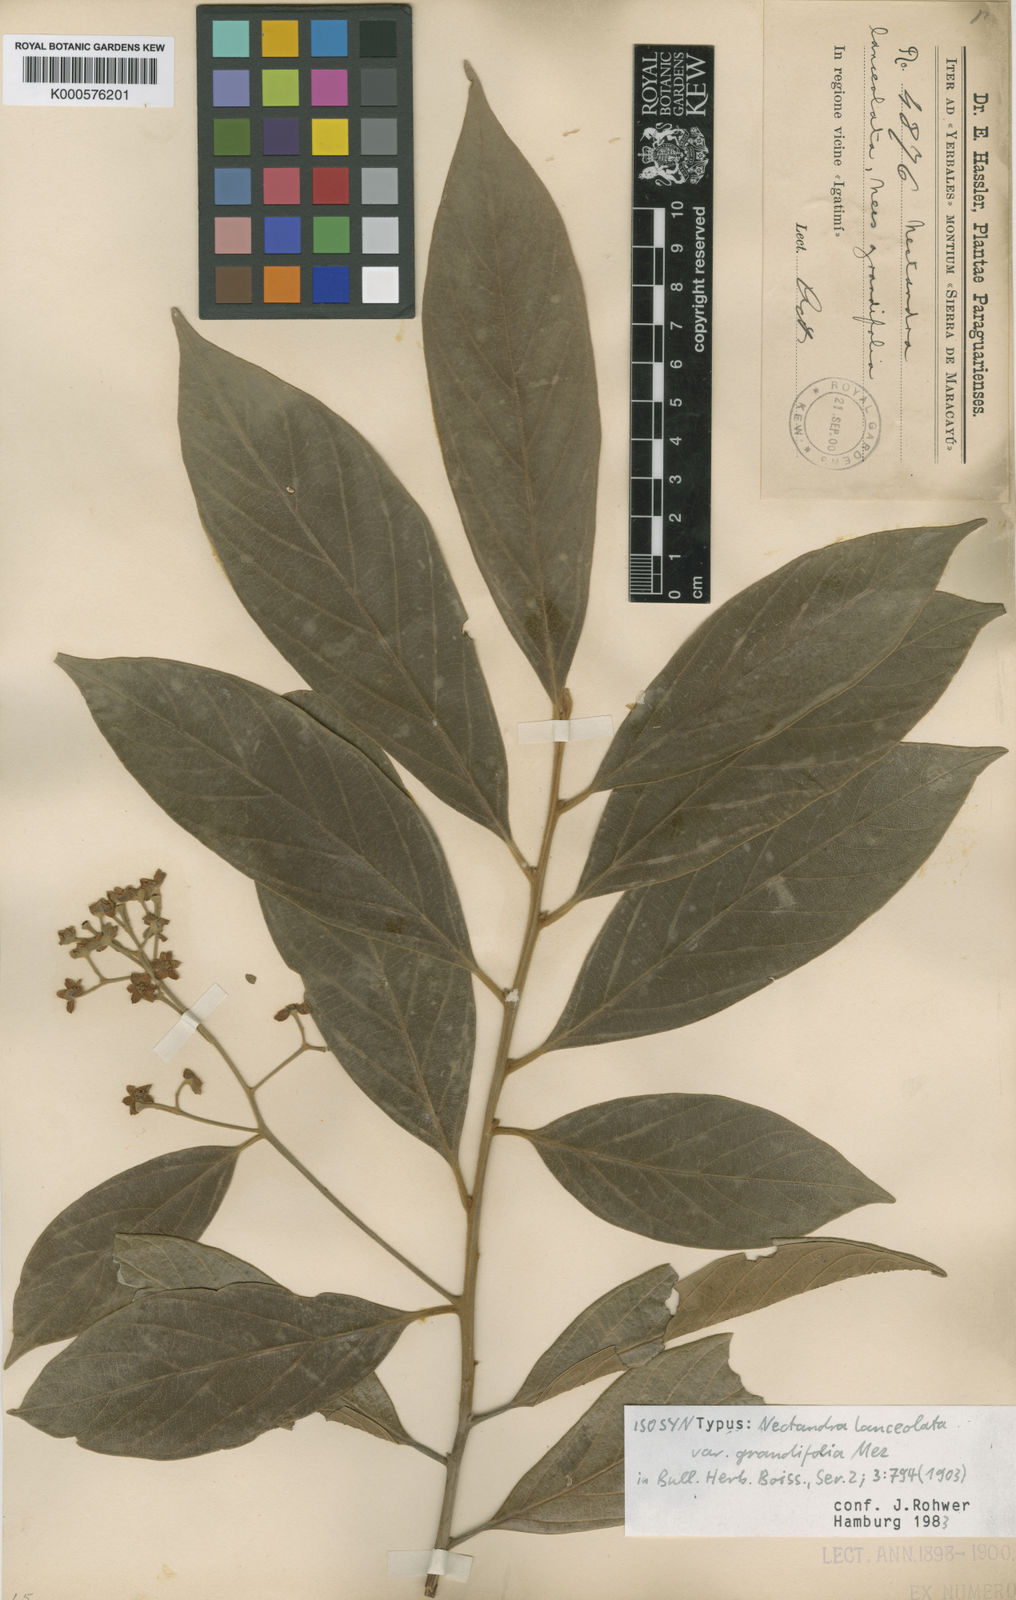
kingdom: Plantae
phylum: Tracheophyta
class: Magnoliopsida
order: Laurales
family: Lauraceae
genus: Nectandra
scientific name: Nectandra lanceolata
